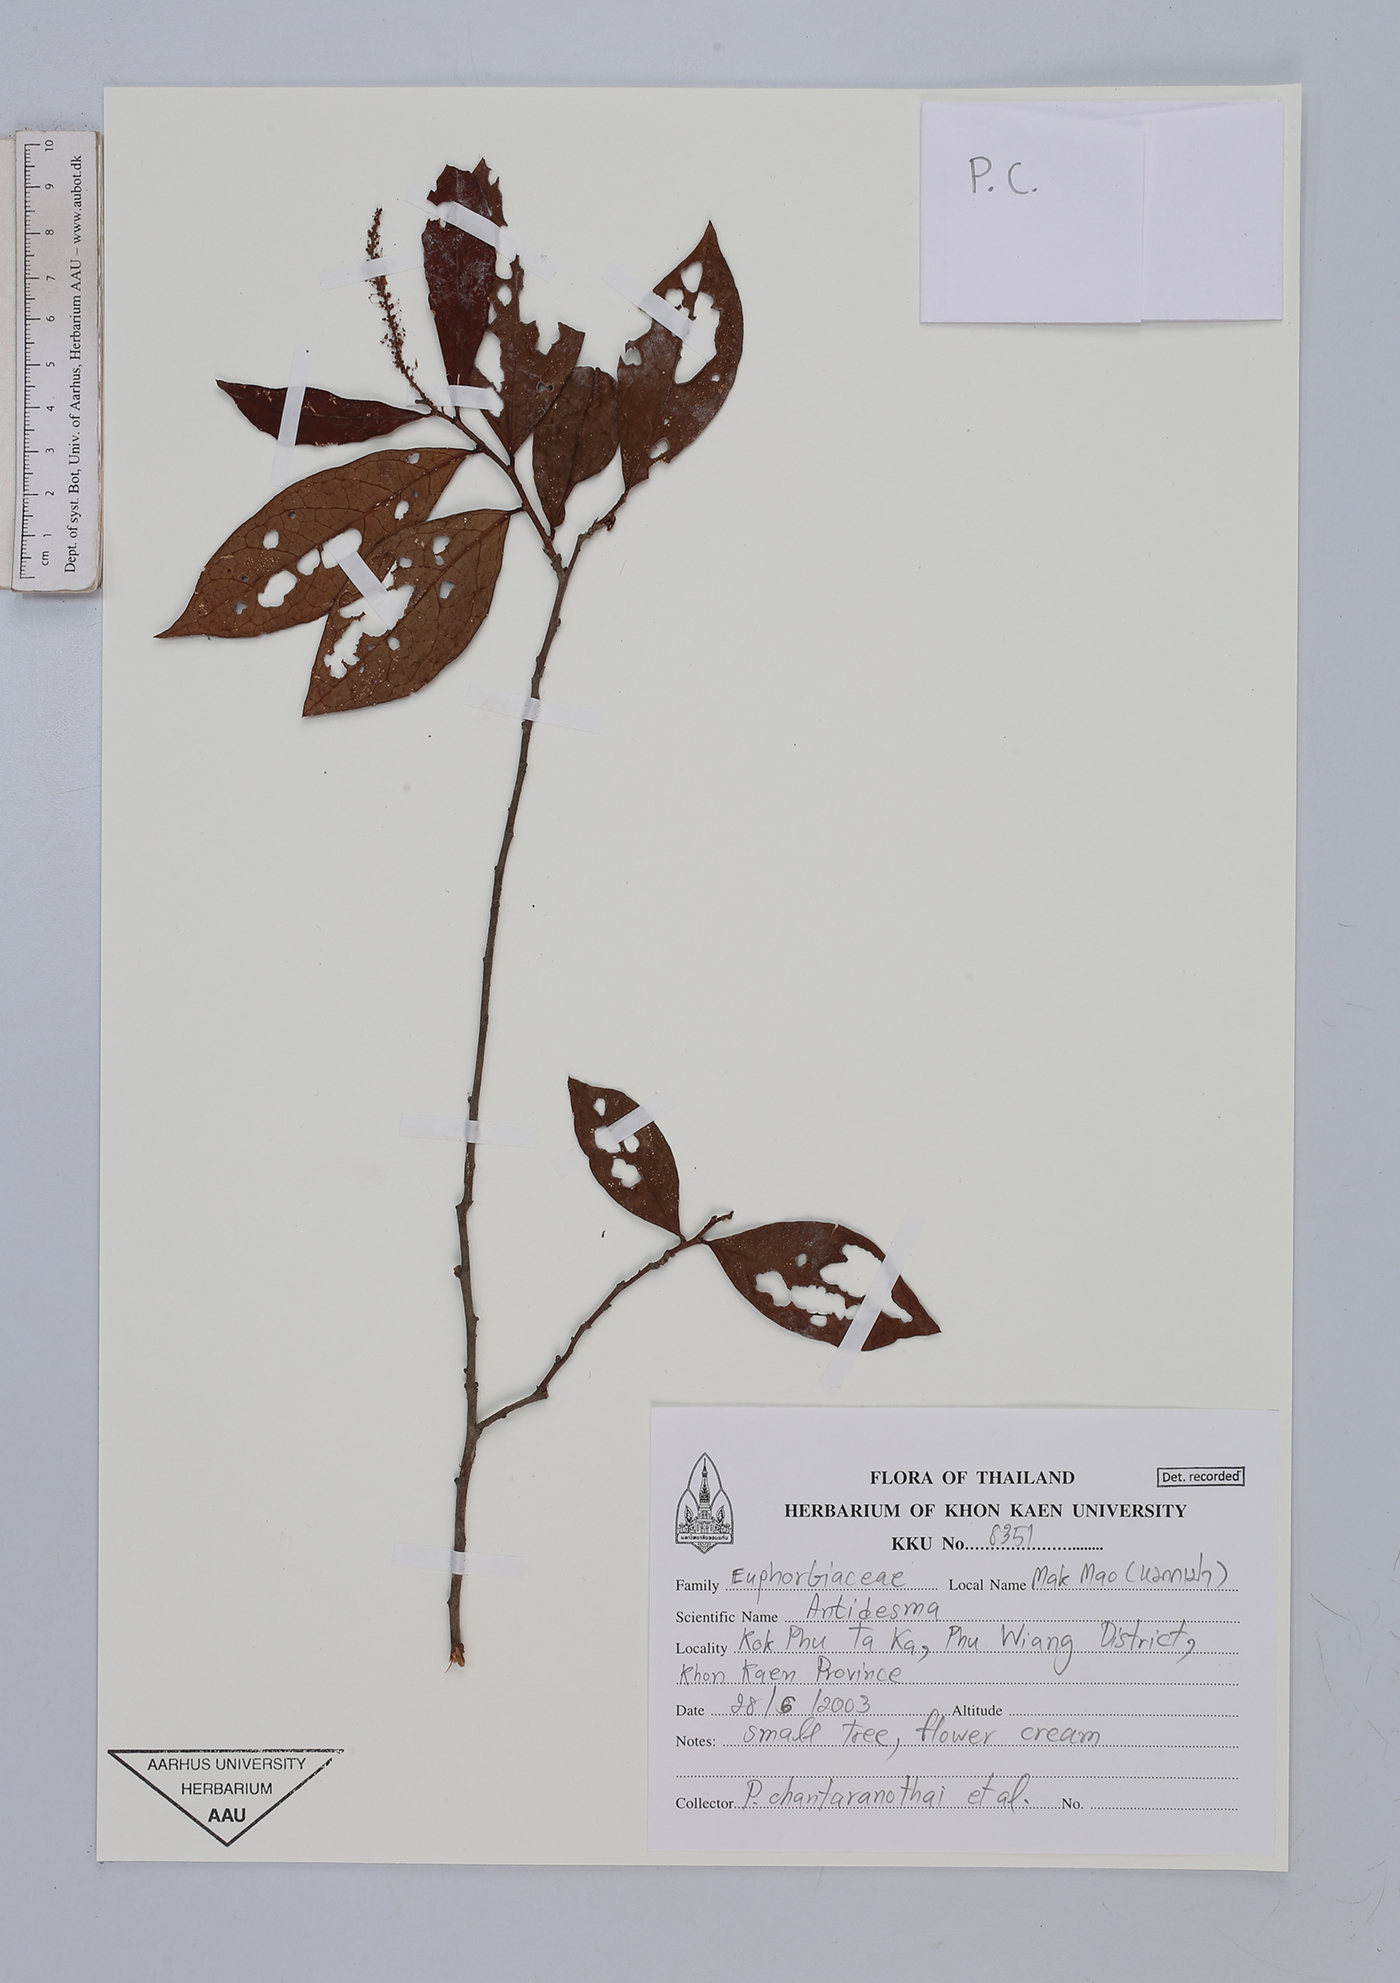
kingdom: Plantae
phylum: Tracheophyta
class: Magnoliopsida
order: Malpighiales
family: Phyllanthaceae
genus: Antidesma
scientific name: Antidesma
